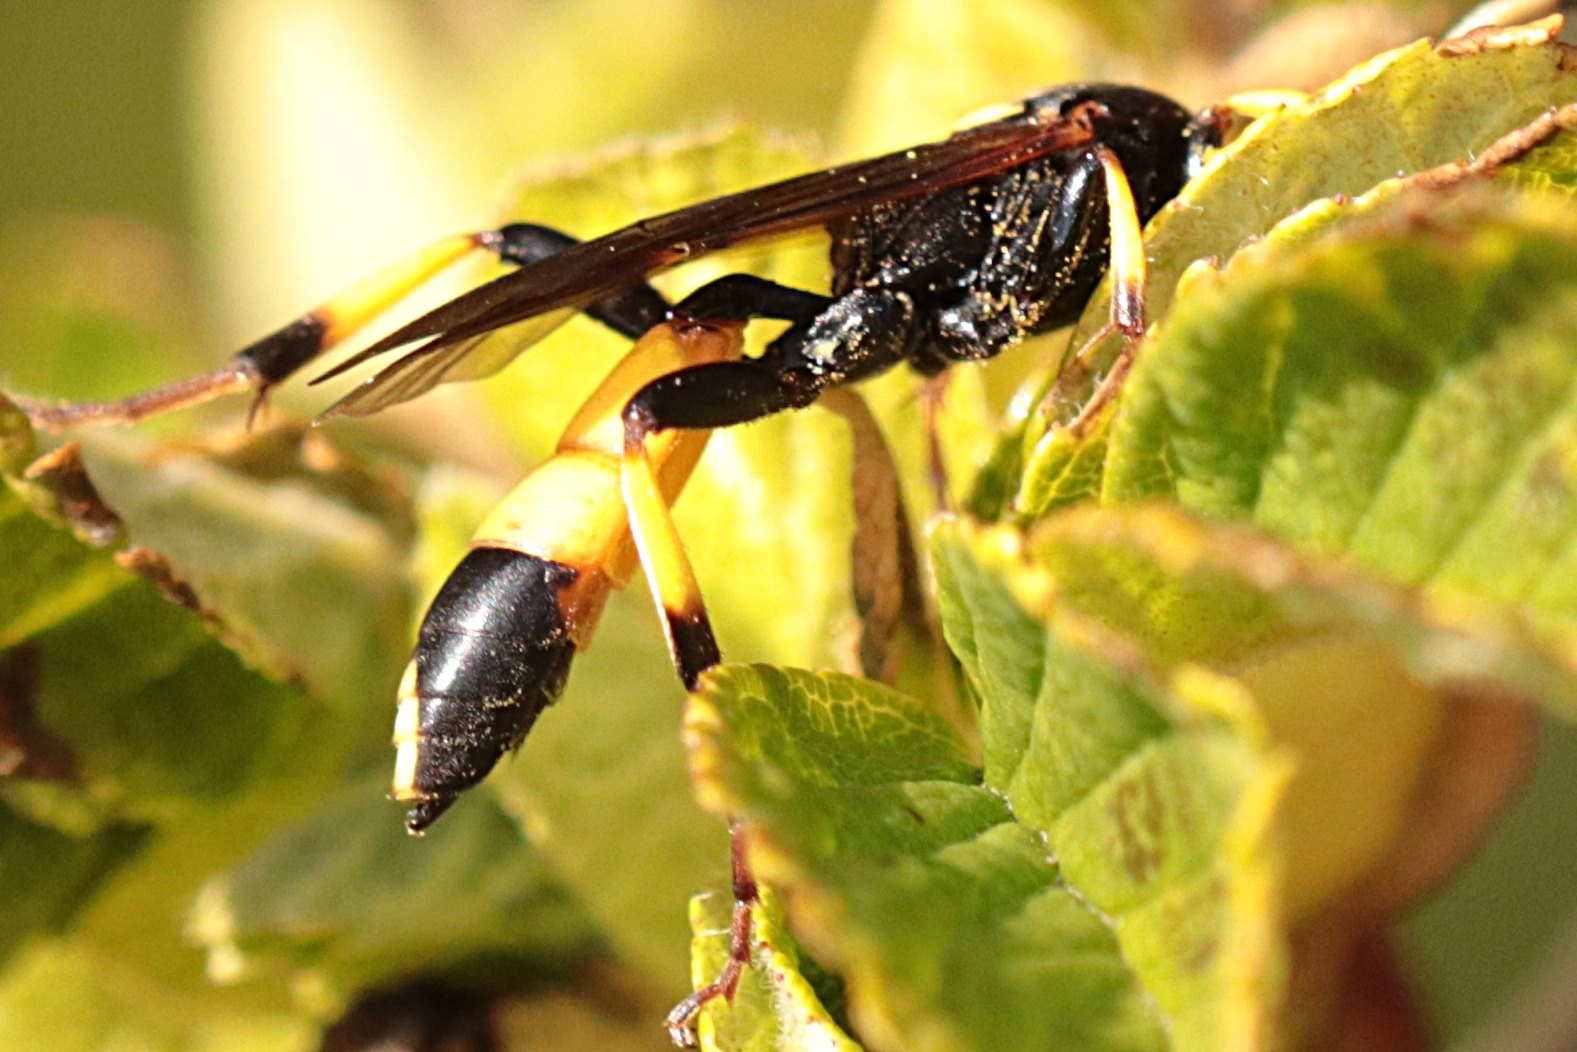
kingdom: Animalia
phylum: Arthropoda
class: Insecta
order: Hymenoptera
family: Ichneumonidae
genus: Ichneumon
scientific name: Ichneumon stramentor
